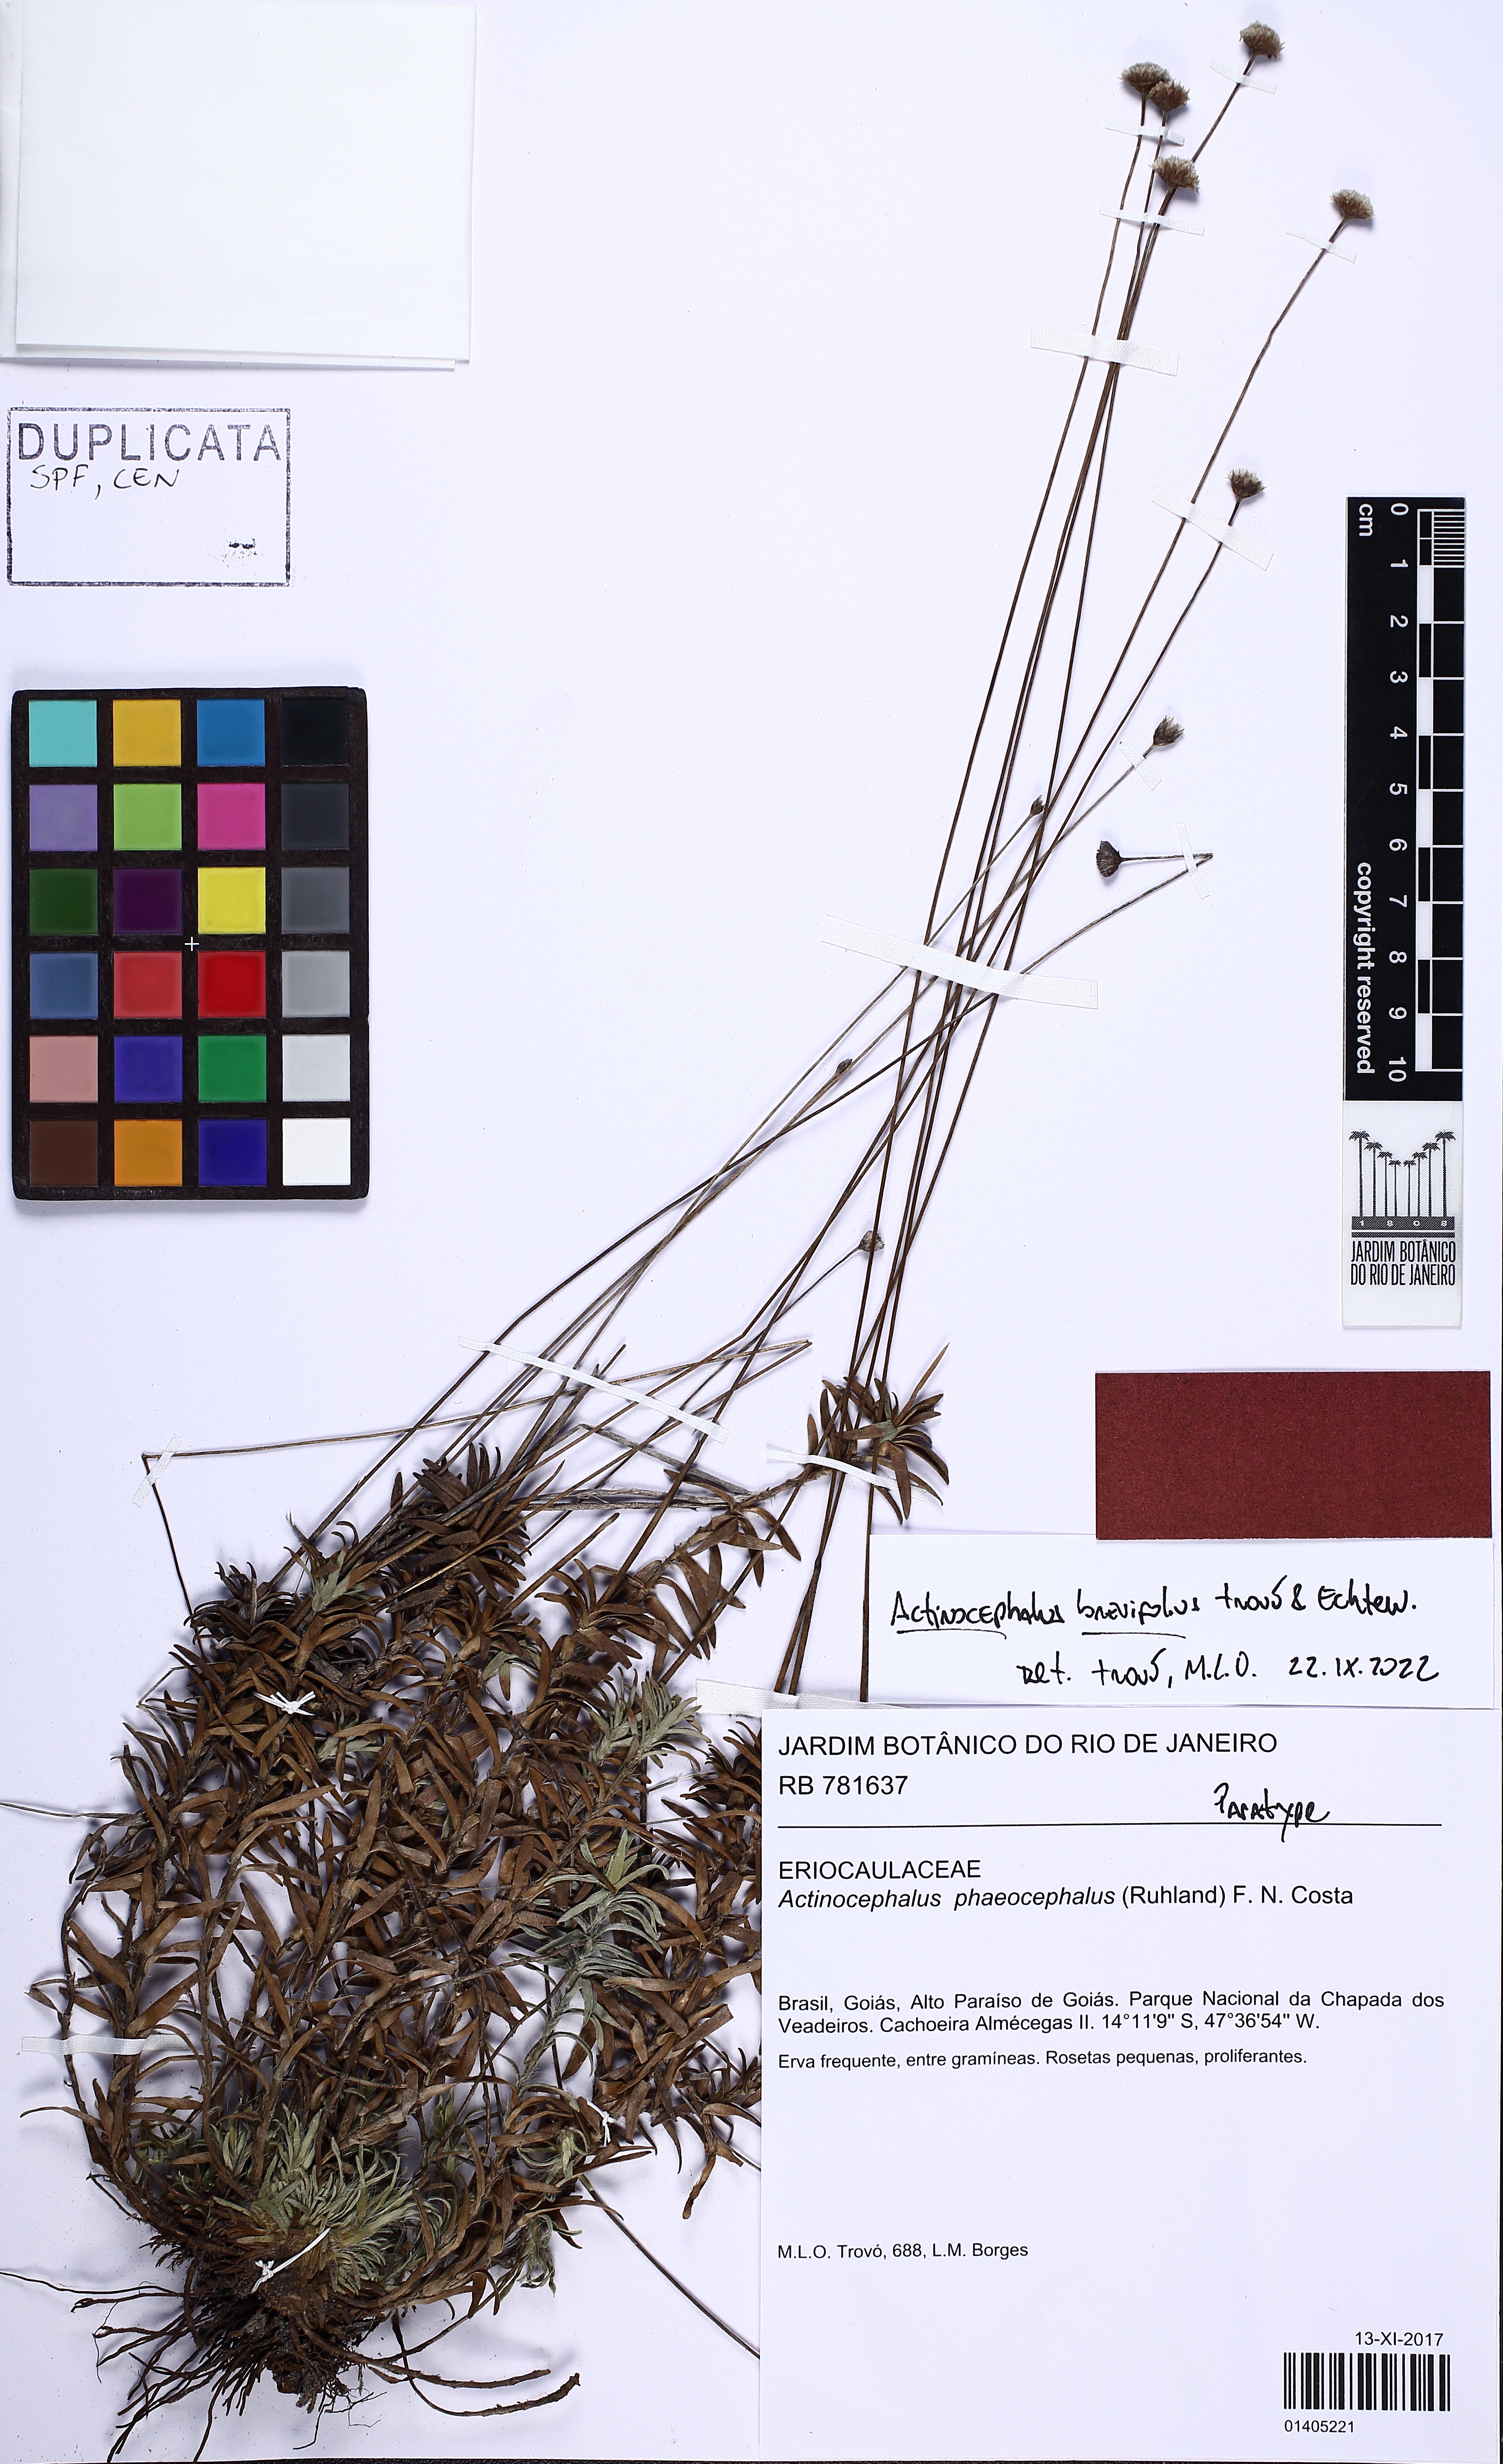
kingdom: Plantae
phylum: Tracheophyta
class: Liliopsida
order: Poales
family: Eriocaulaceae
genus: Paepalanthus
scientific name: Paepalanthus Actinocephalus brevifolius
